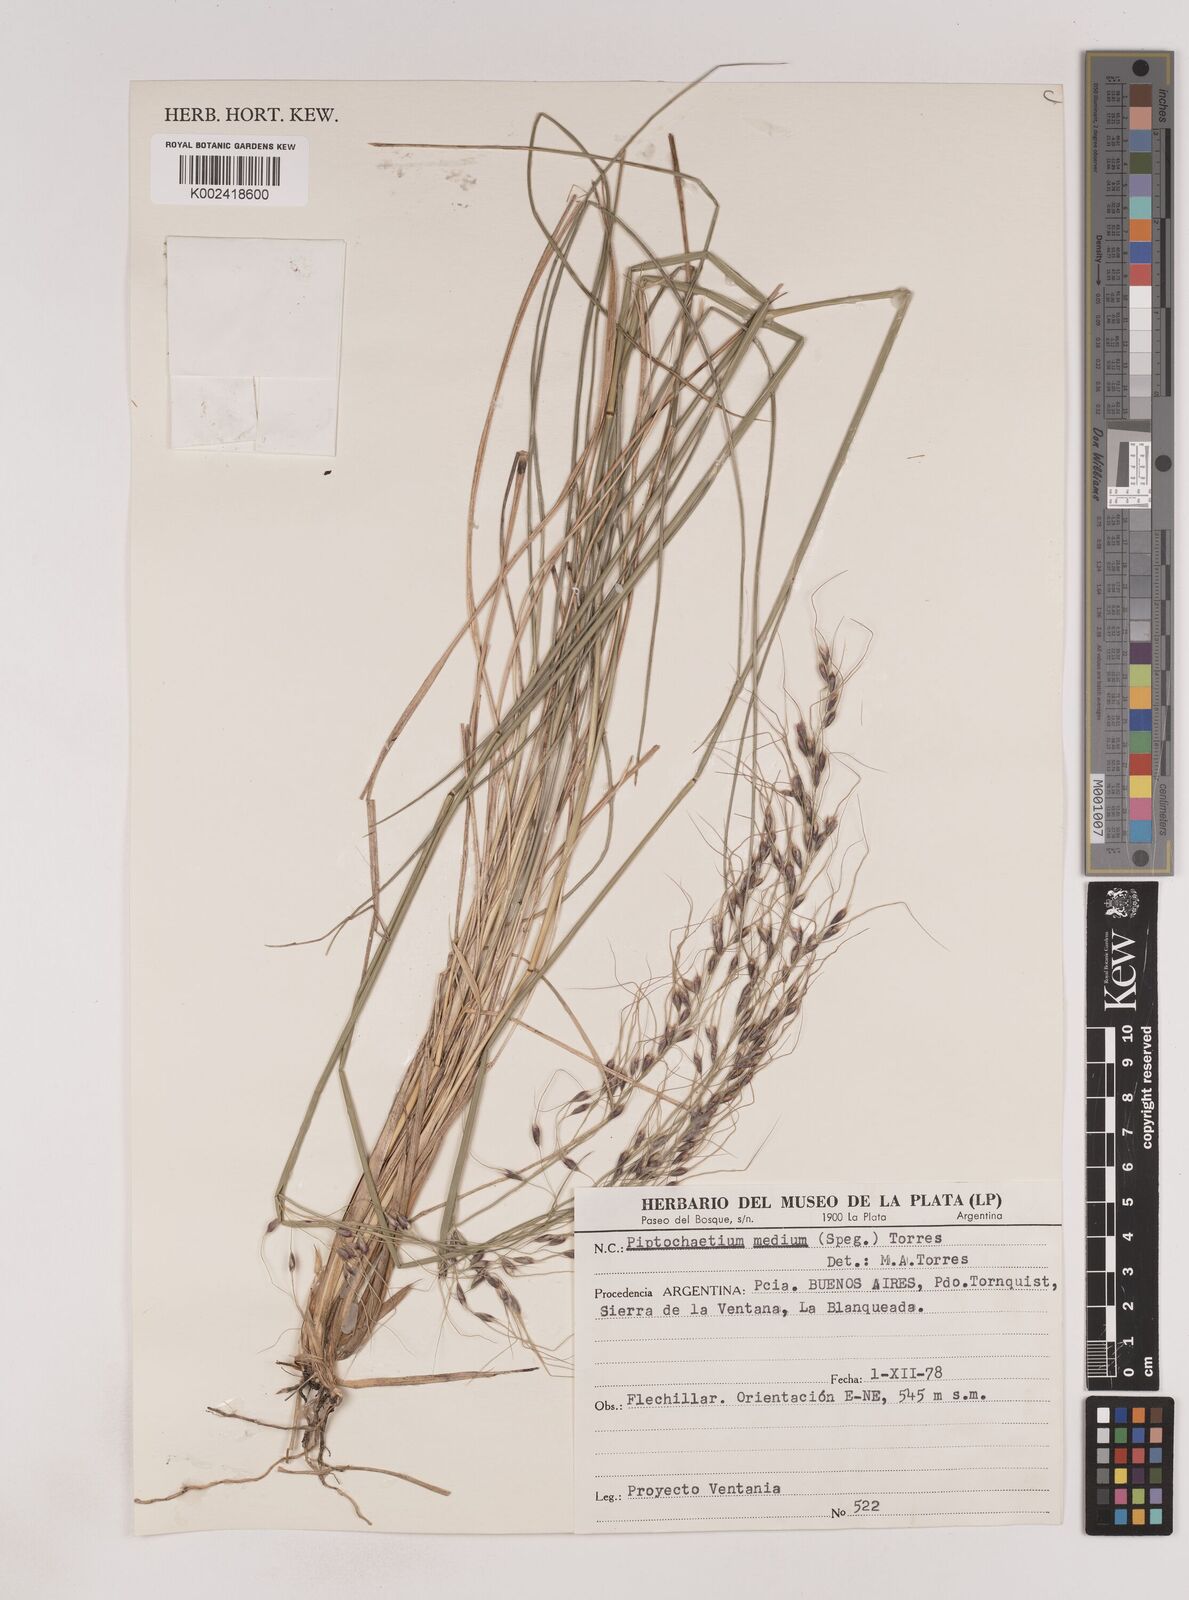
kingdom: Plantae
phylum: Tracheophyta
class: Liliopsida
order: Poales
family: Poaceae
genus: Piptochaetium
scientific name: Piptochaetium medium
